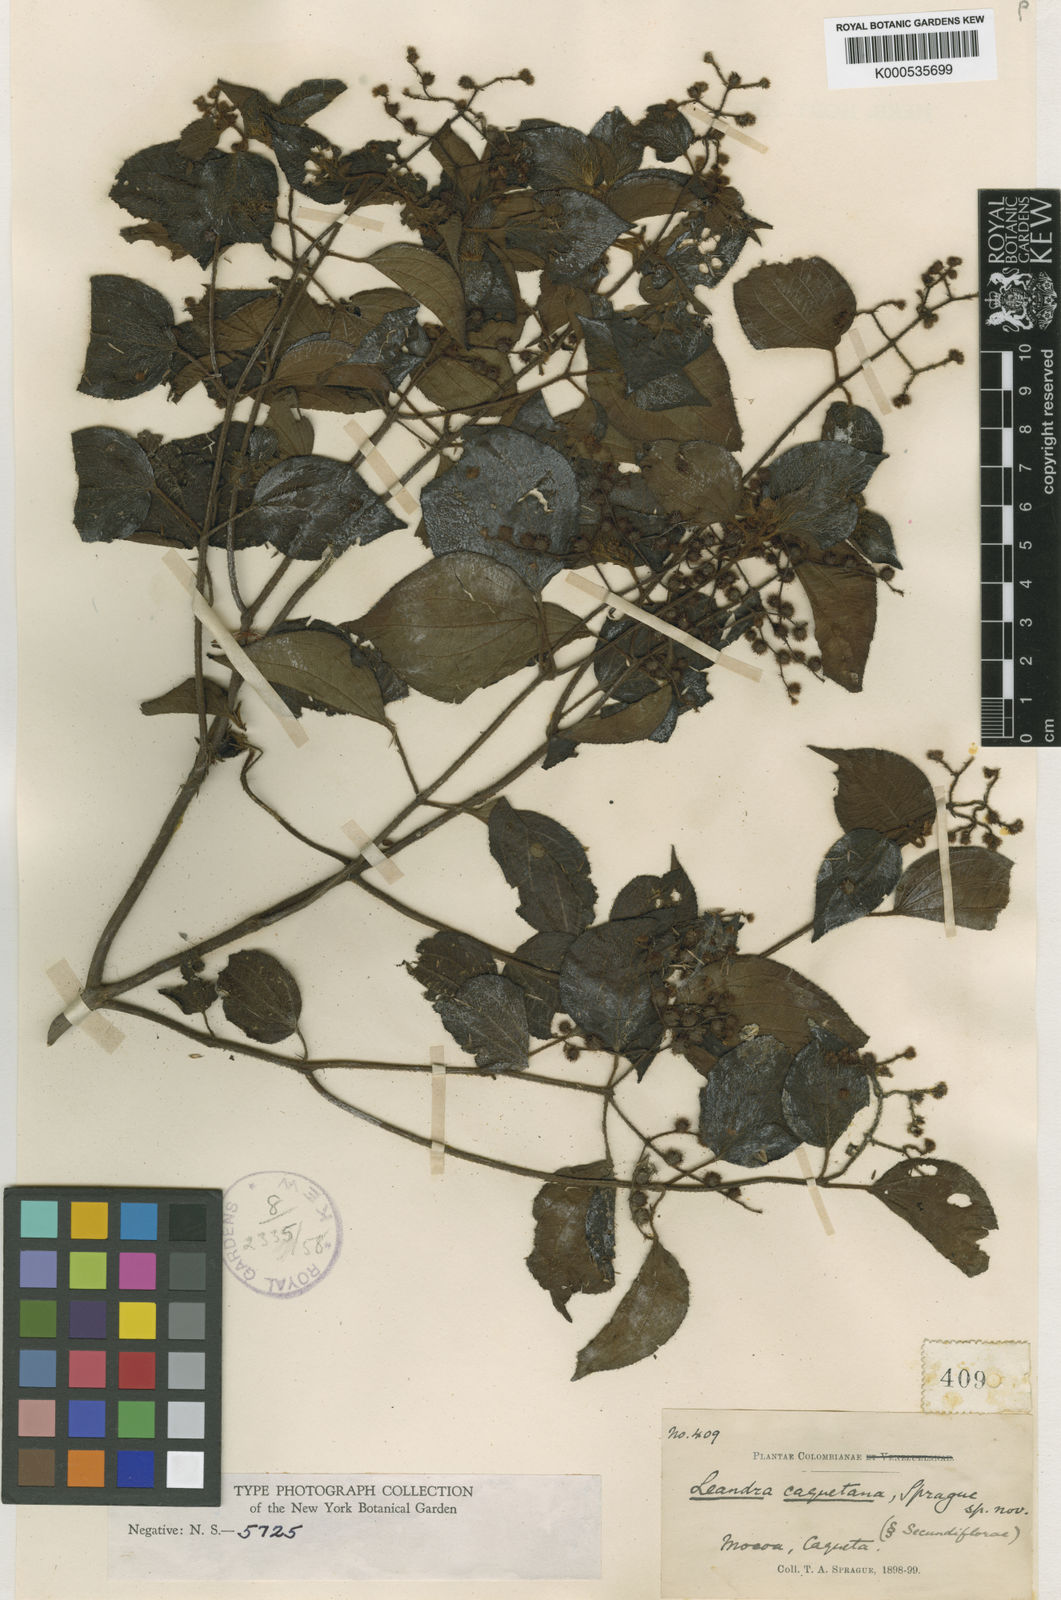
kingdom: Plantae
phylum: Tracheophyta
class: Magnoliopsida
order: Myrtales
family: Melastomataceae
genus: Miconia
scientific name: Miconia secuncaquetana
